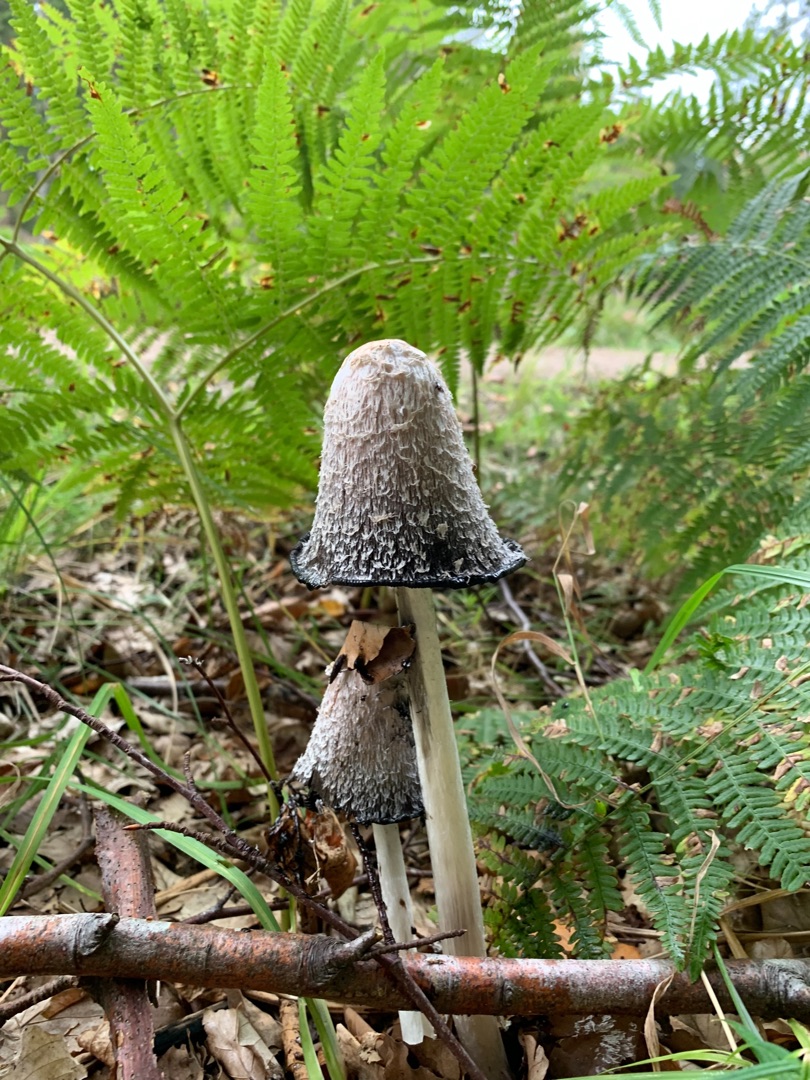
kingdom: Fungi
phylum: Basidiomycota
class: Agaricomycetes
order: Agaricales
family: Agaricaceae
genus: Coprinus
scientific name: Coprinus comatus
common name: Stor parykhat
